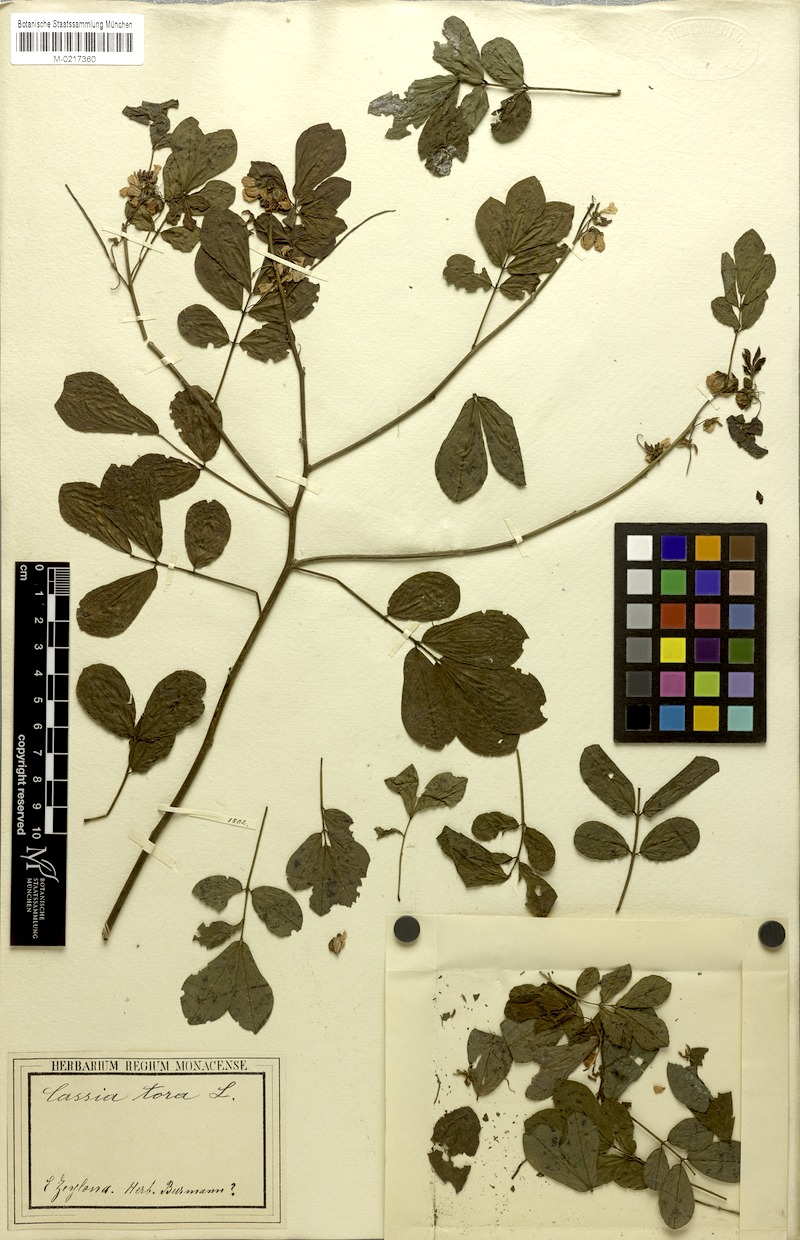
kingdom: Plantae
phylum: Tracheophyta
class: Magnoliopsida
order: Fabales
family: Fabaceae
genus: Senna
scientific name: Senna obtusifolia
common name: Java-bean
